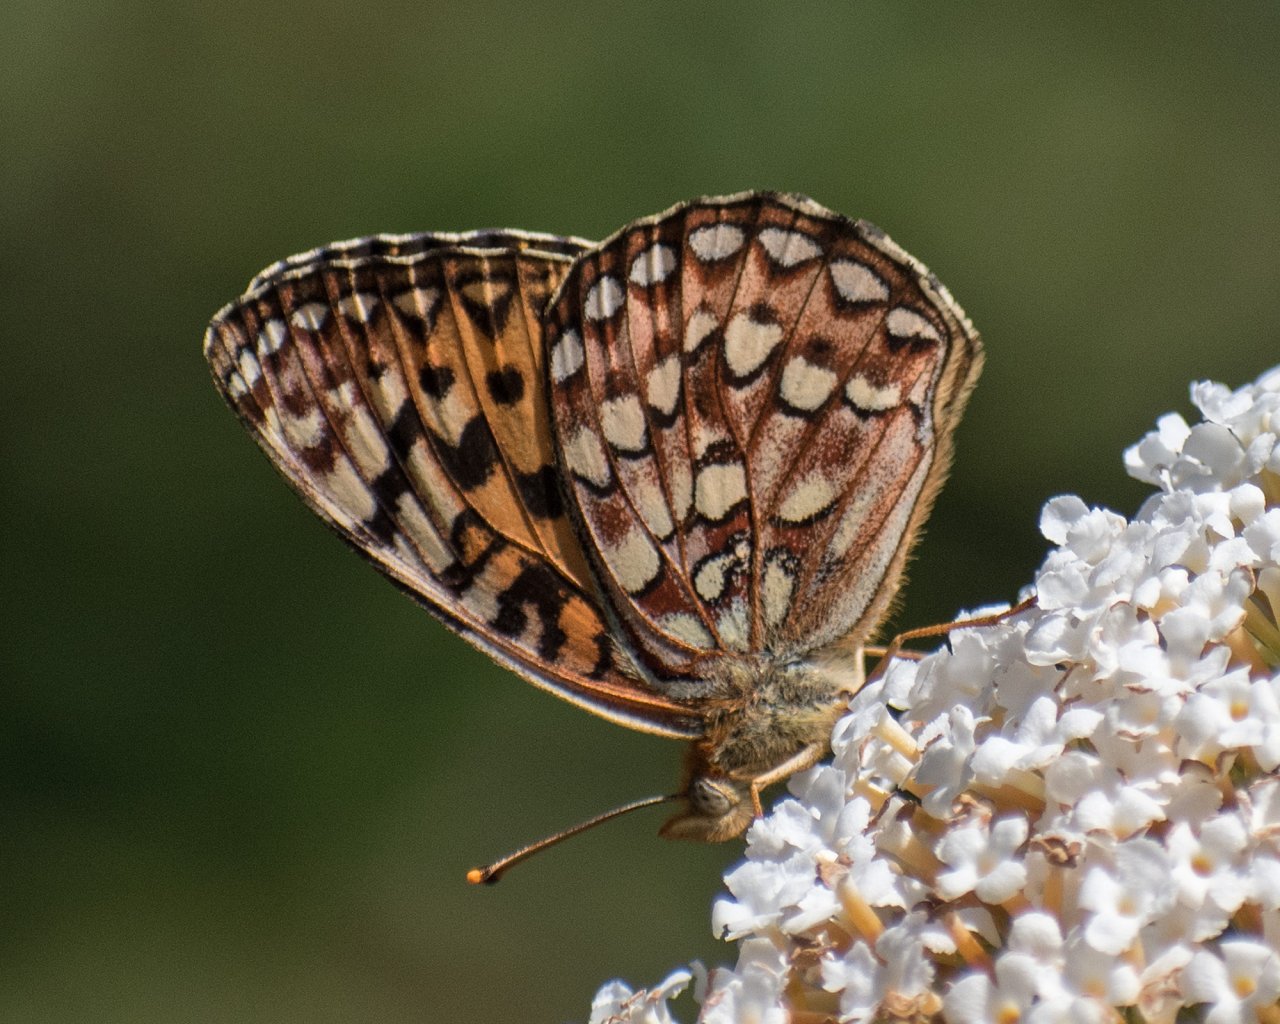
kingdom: Animalia
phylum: Arthropoda
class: Insecta
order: Lepidoptera
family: Nymphalidae
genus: Speyeria
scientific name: Speyeria hydaspe
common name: Hydaspe Fritillary
